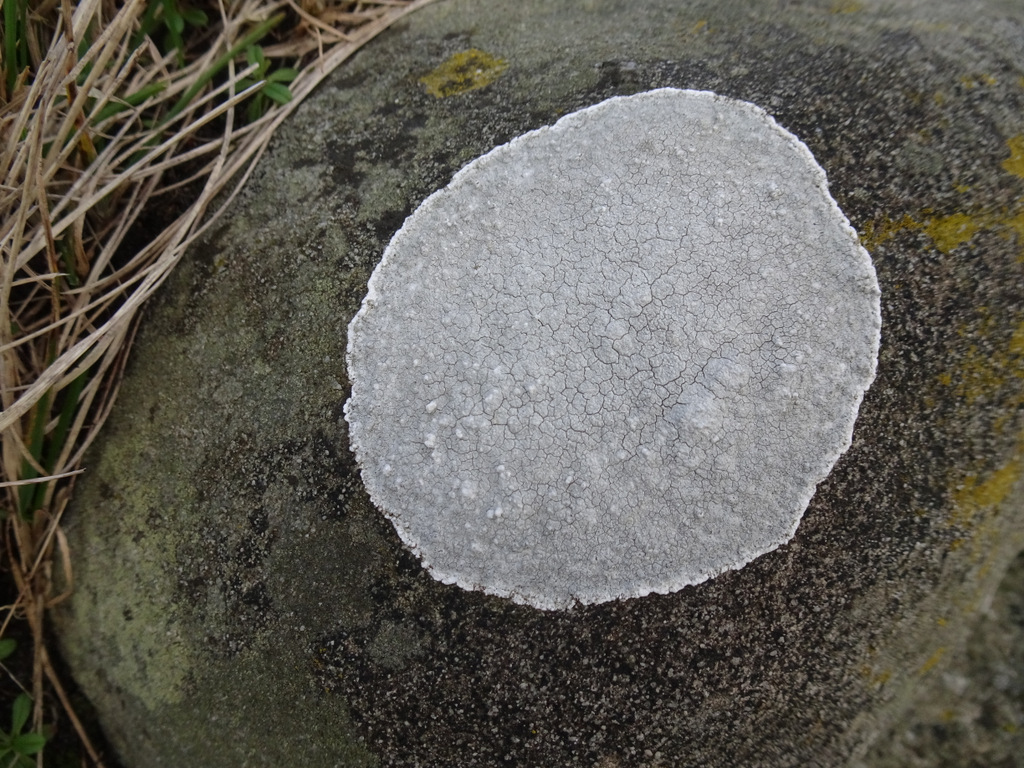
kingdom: Fungi
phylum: Ascomycota
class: Lecanoromycetes
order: Lecanorales
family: Lecanoraceae
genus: Glaucomaria
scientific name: Glaucomaria rupicola
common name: stengærde-kantskivelav
